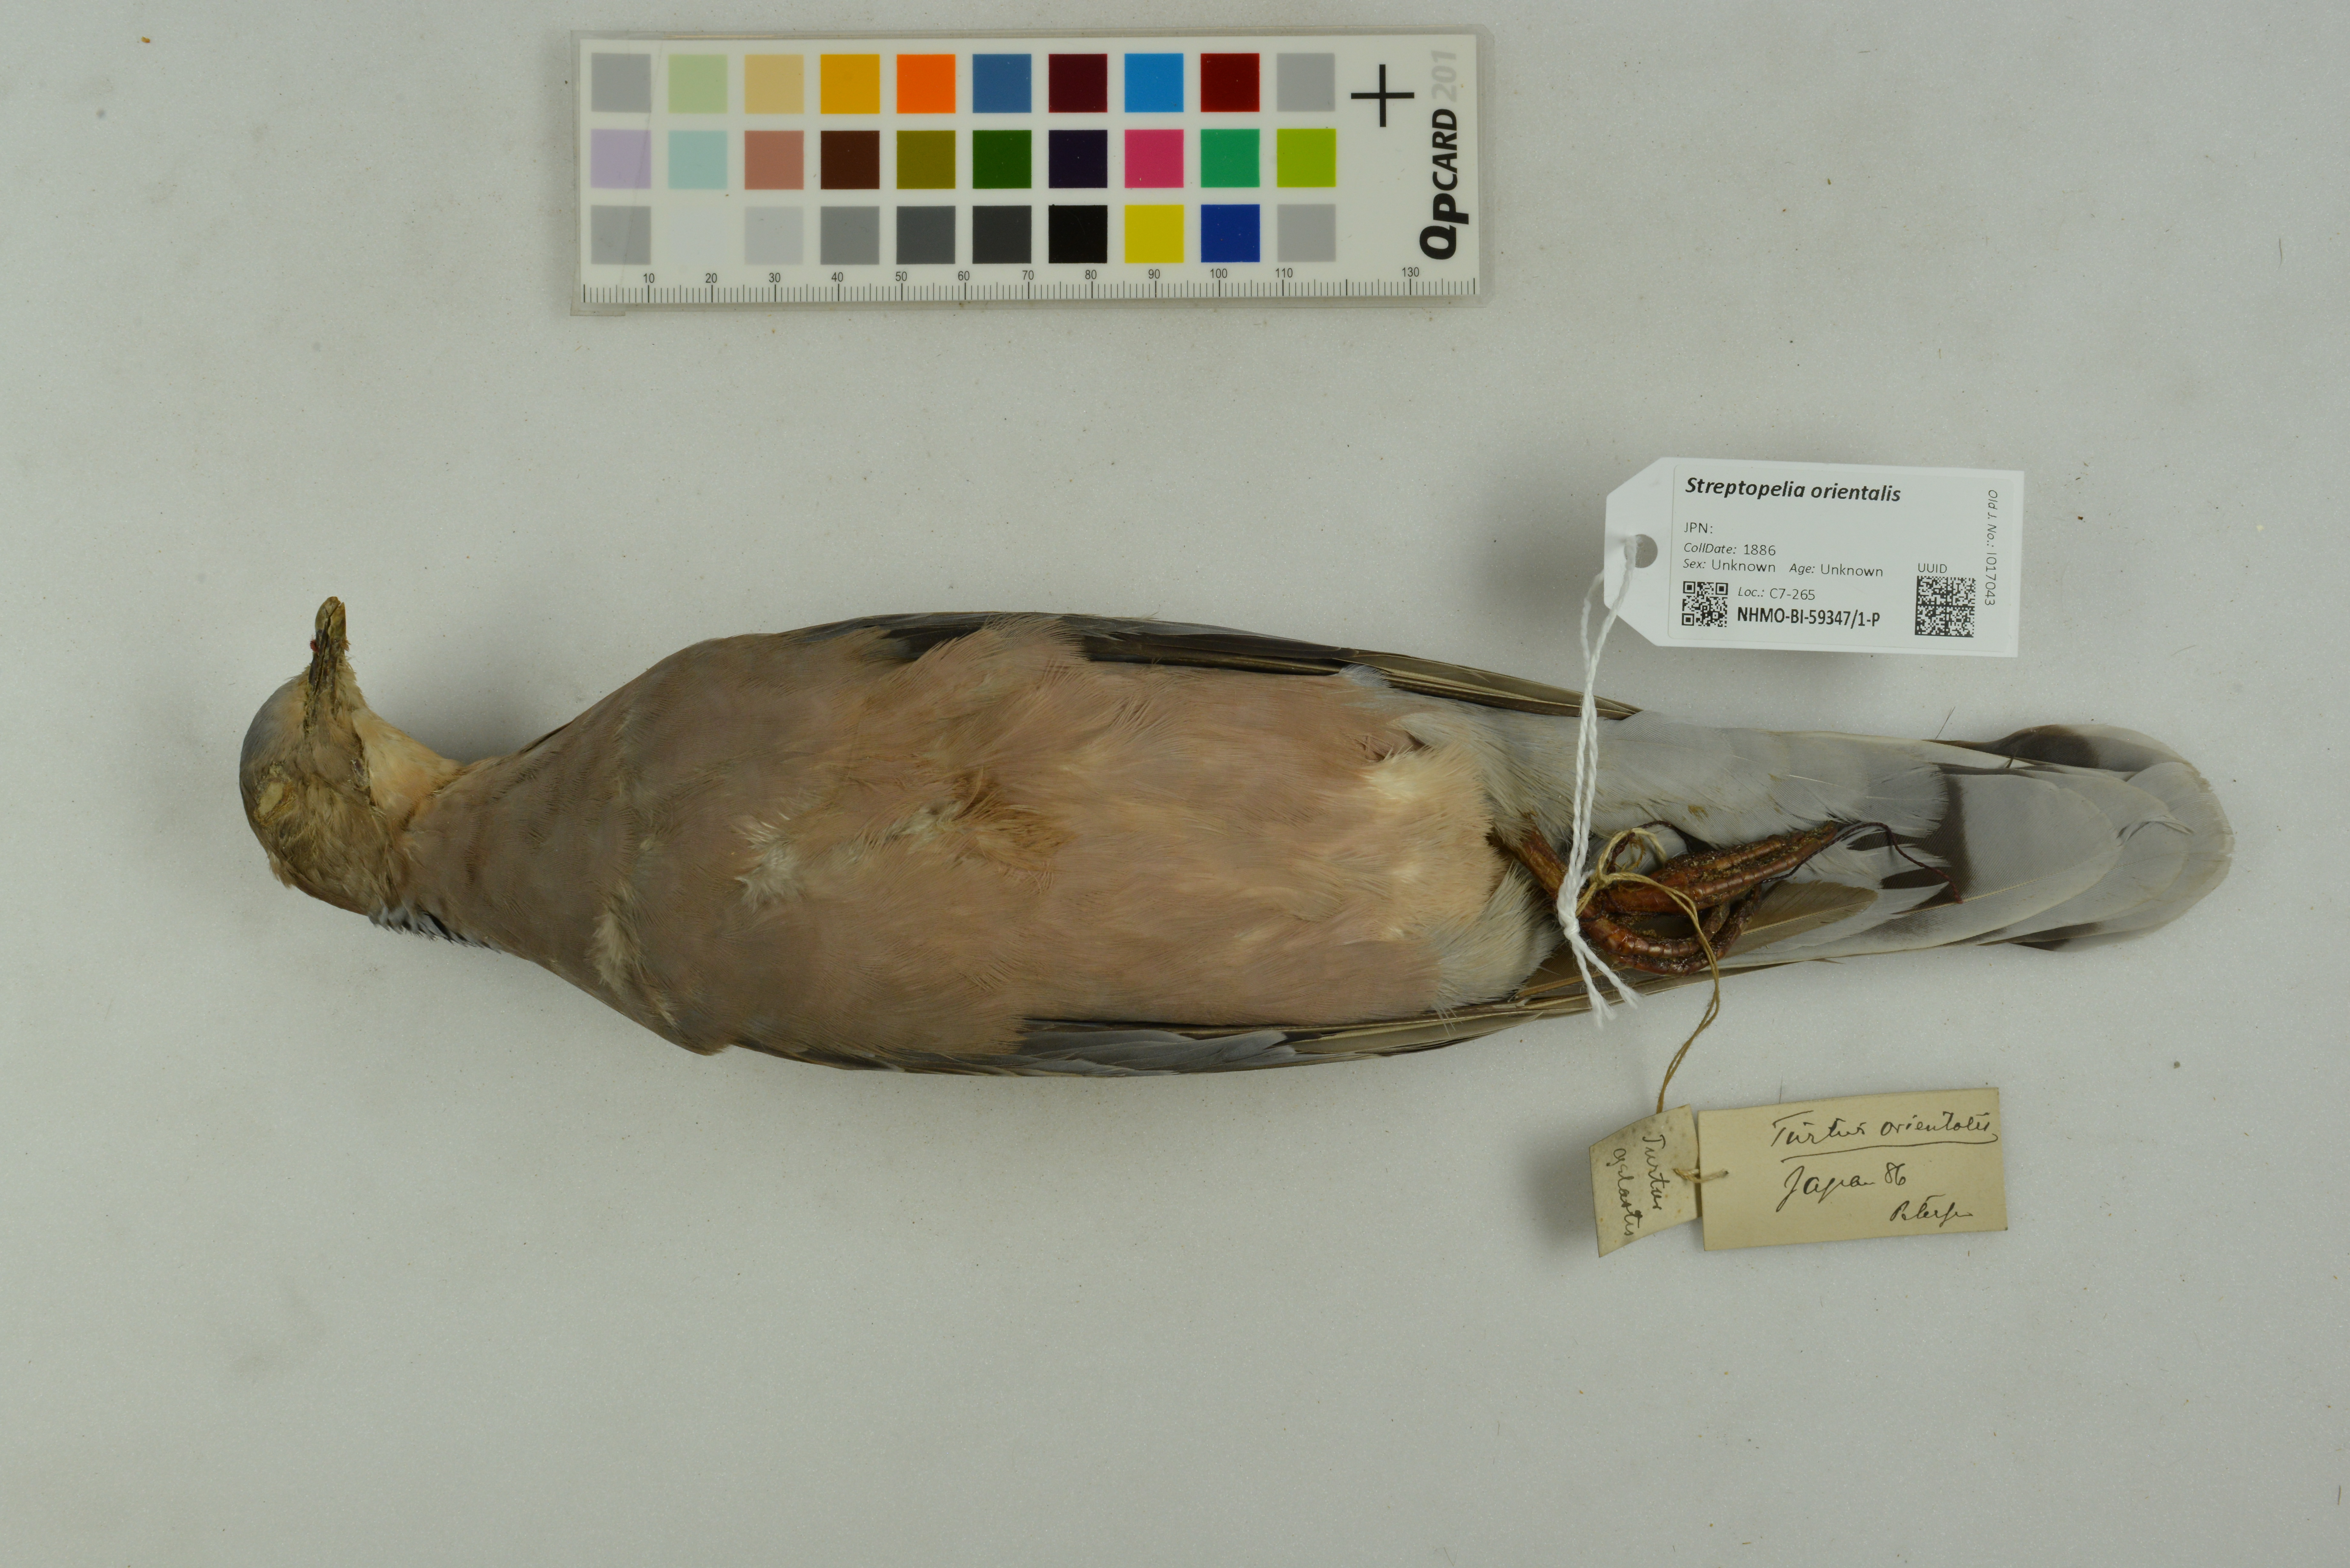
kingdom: Animalia
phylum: Chordata
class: Aves
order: Columbiformes
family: Columbidae
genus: Streptopelia
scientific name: Streptopelia orientalis
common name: Oriental turtle dove
